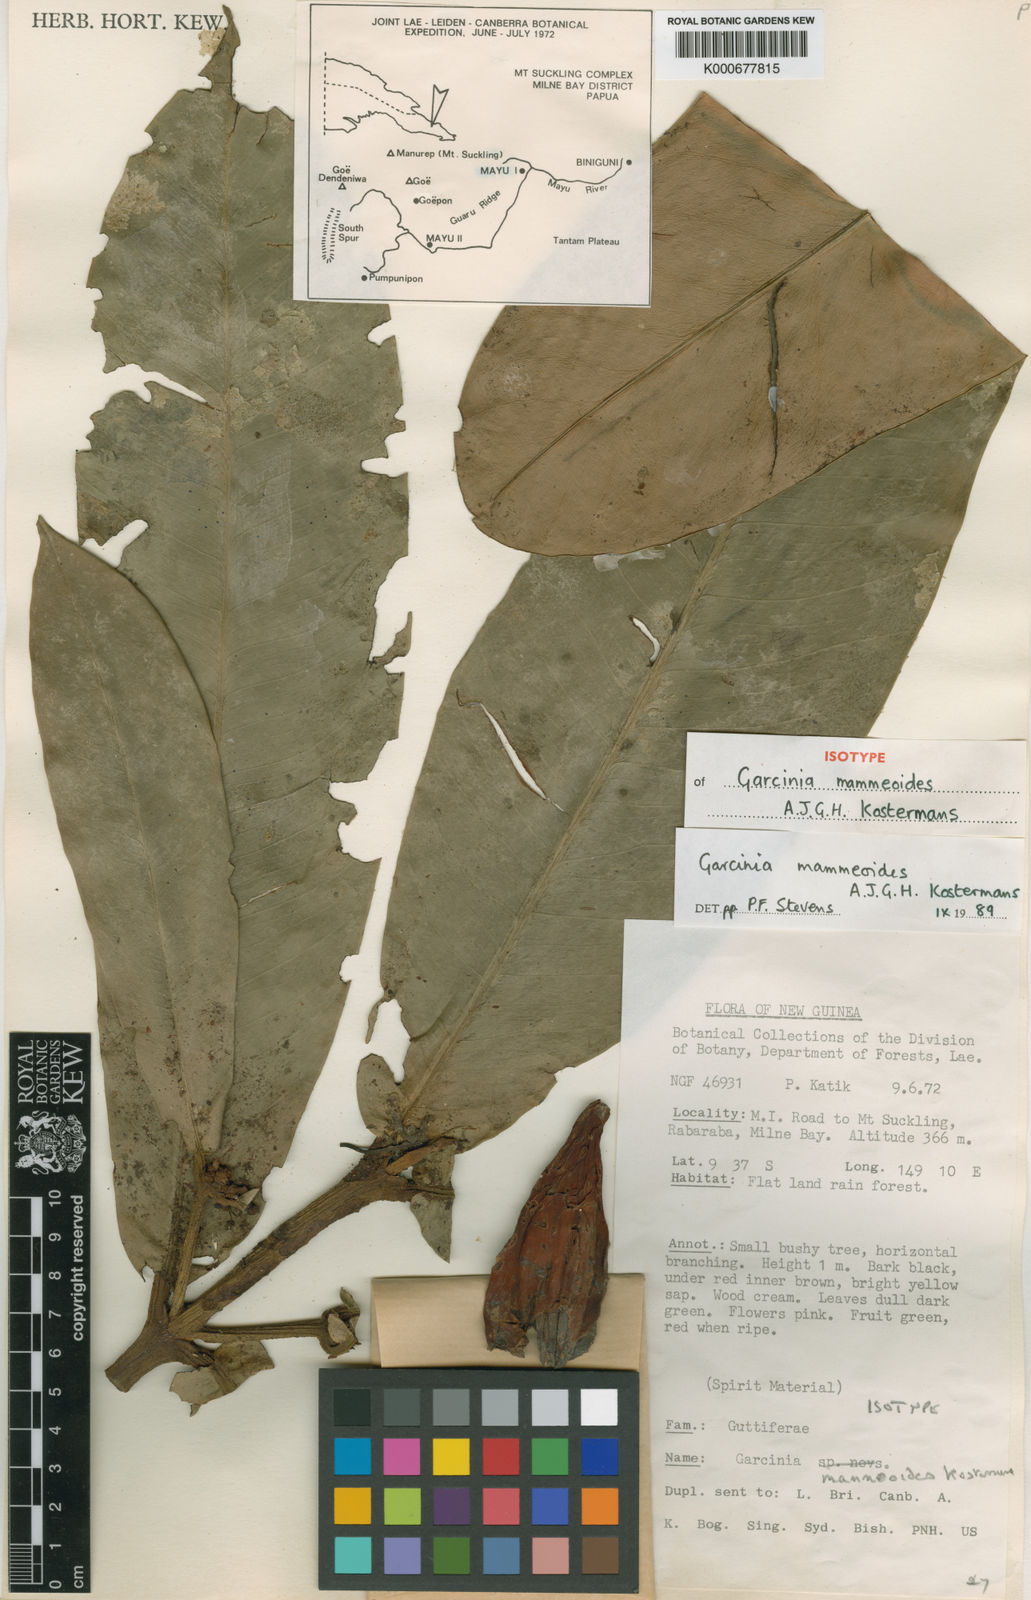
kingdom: Plantae
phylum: Tracheophyta
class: Magnoliopsida
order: Malpighiales
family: Clusiaceae
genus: Garcinia
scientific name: Garcinia mammeoides
